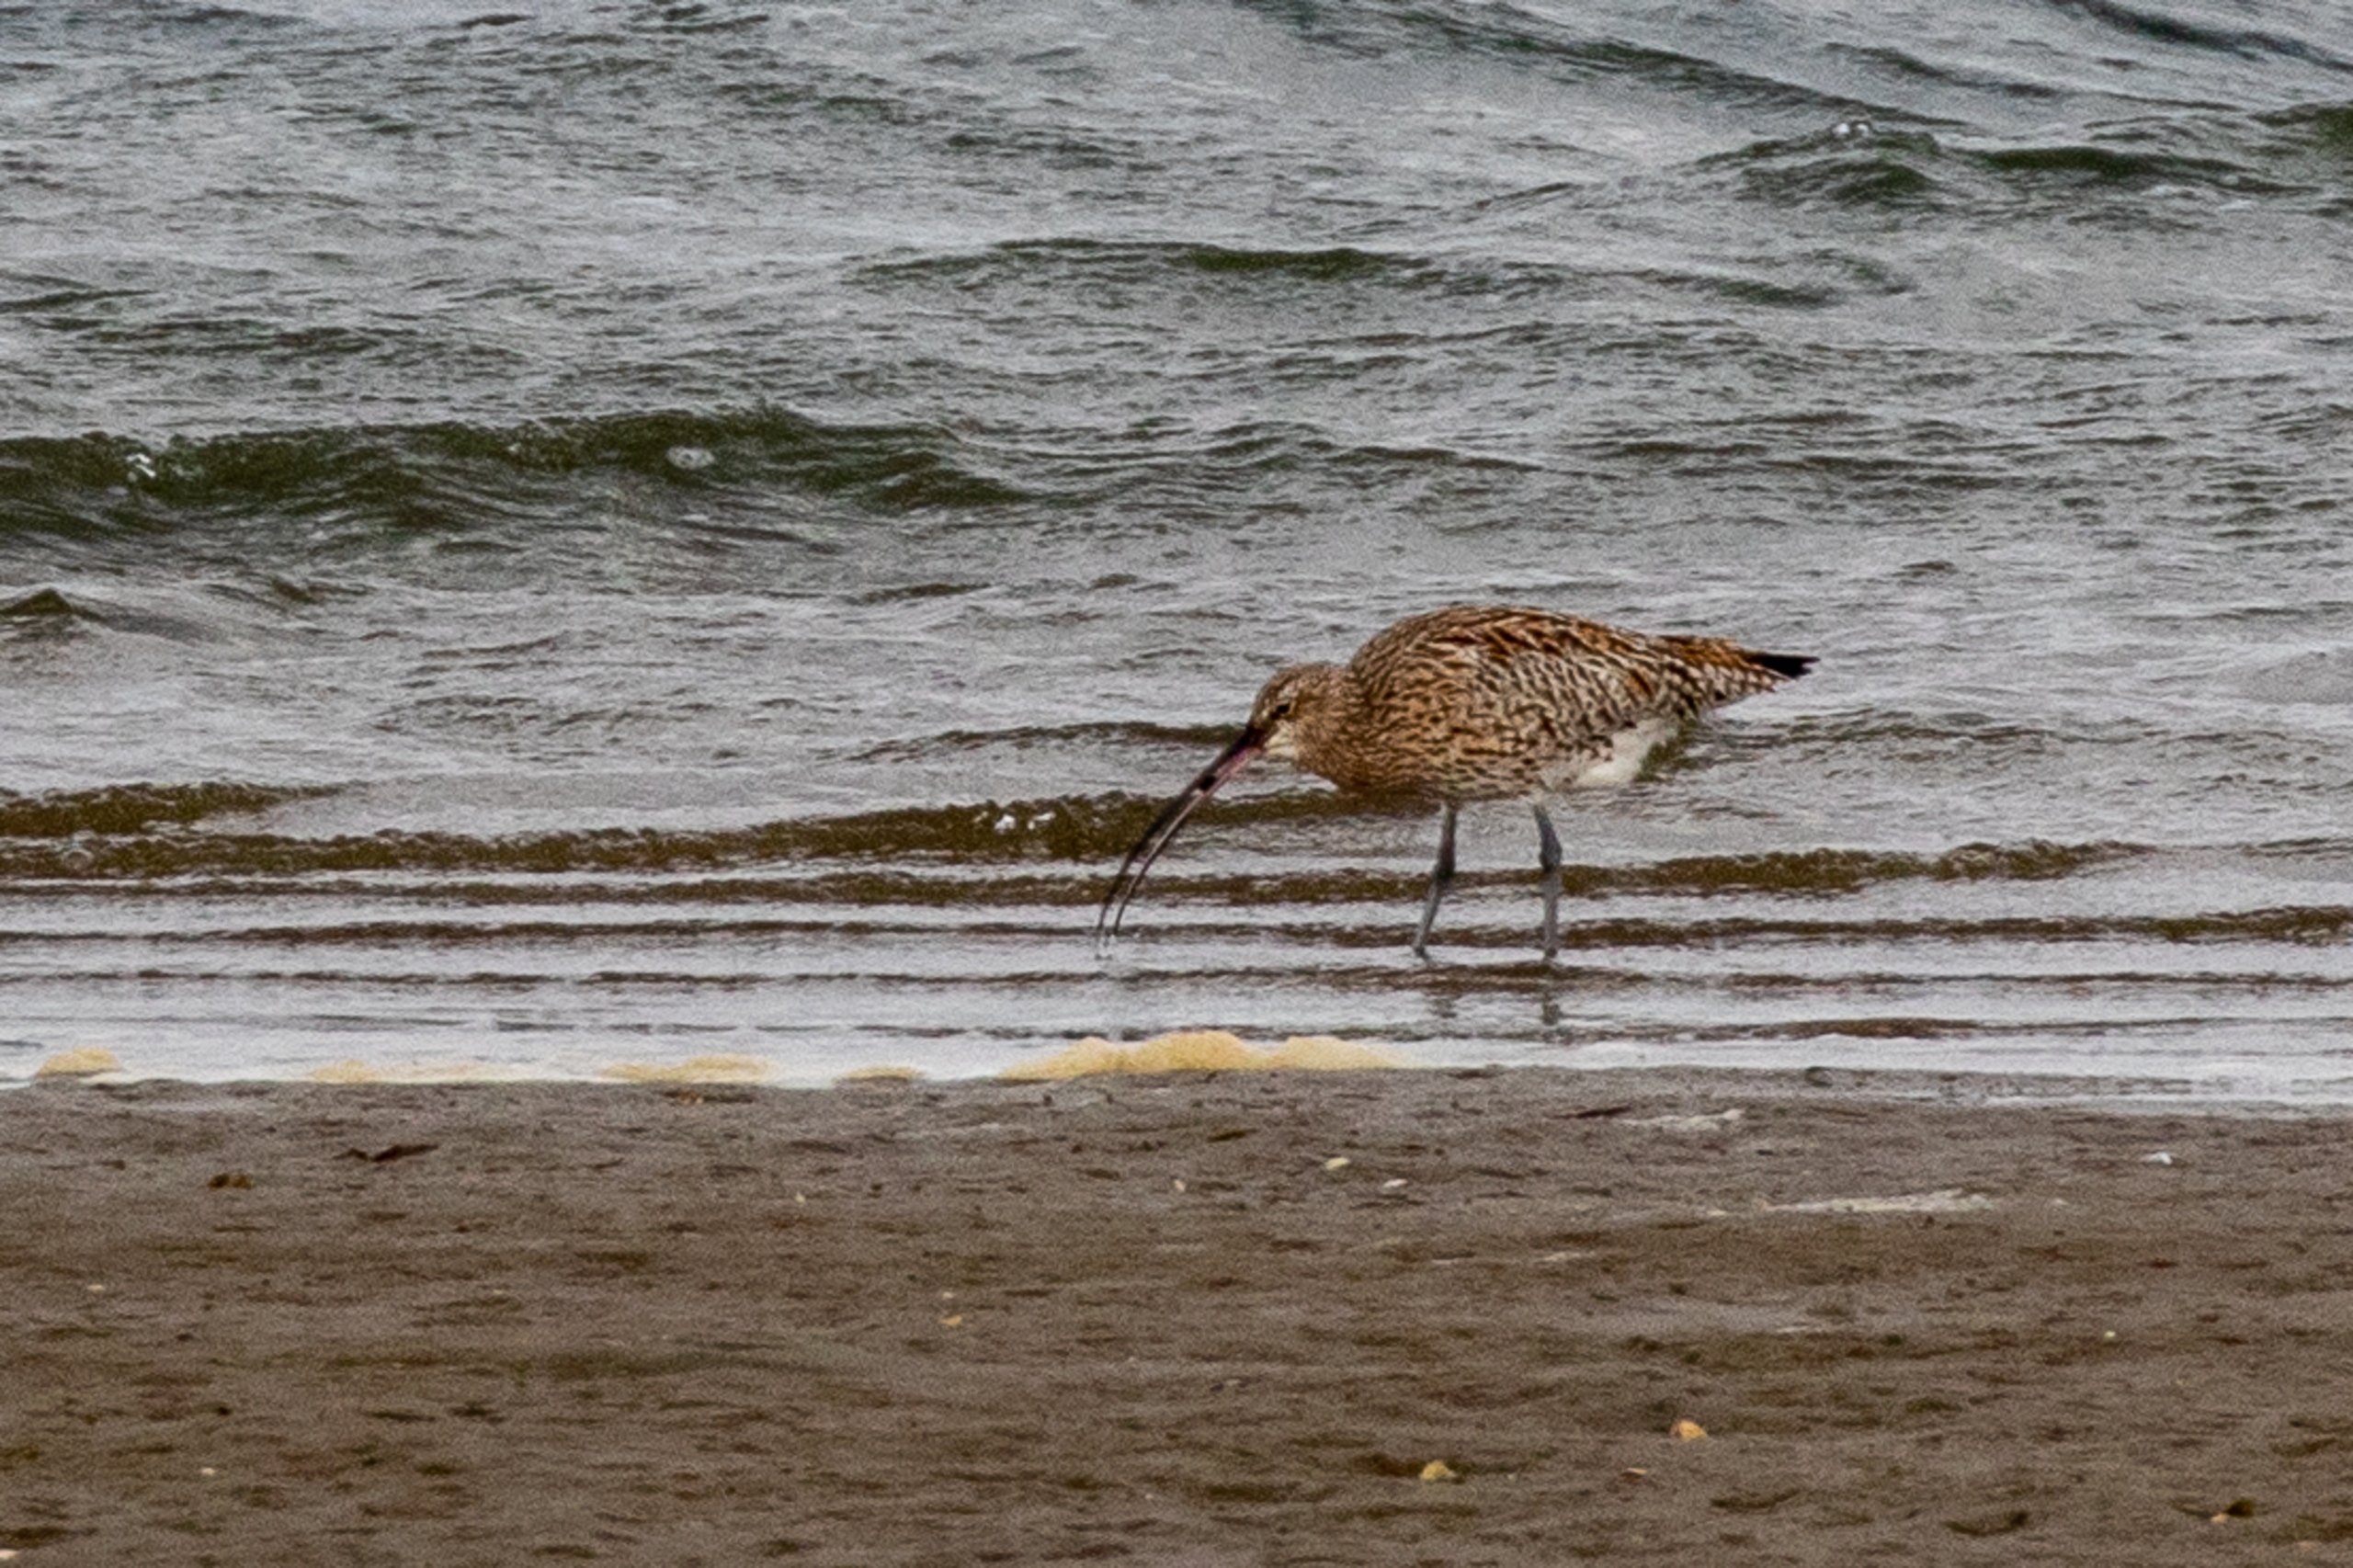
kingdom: Animalia
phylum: Chordata
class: Aves
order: Charadriiformes
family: Scolopacidae
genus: Numenius
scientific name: Numenius arquata
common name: Storspove
